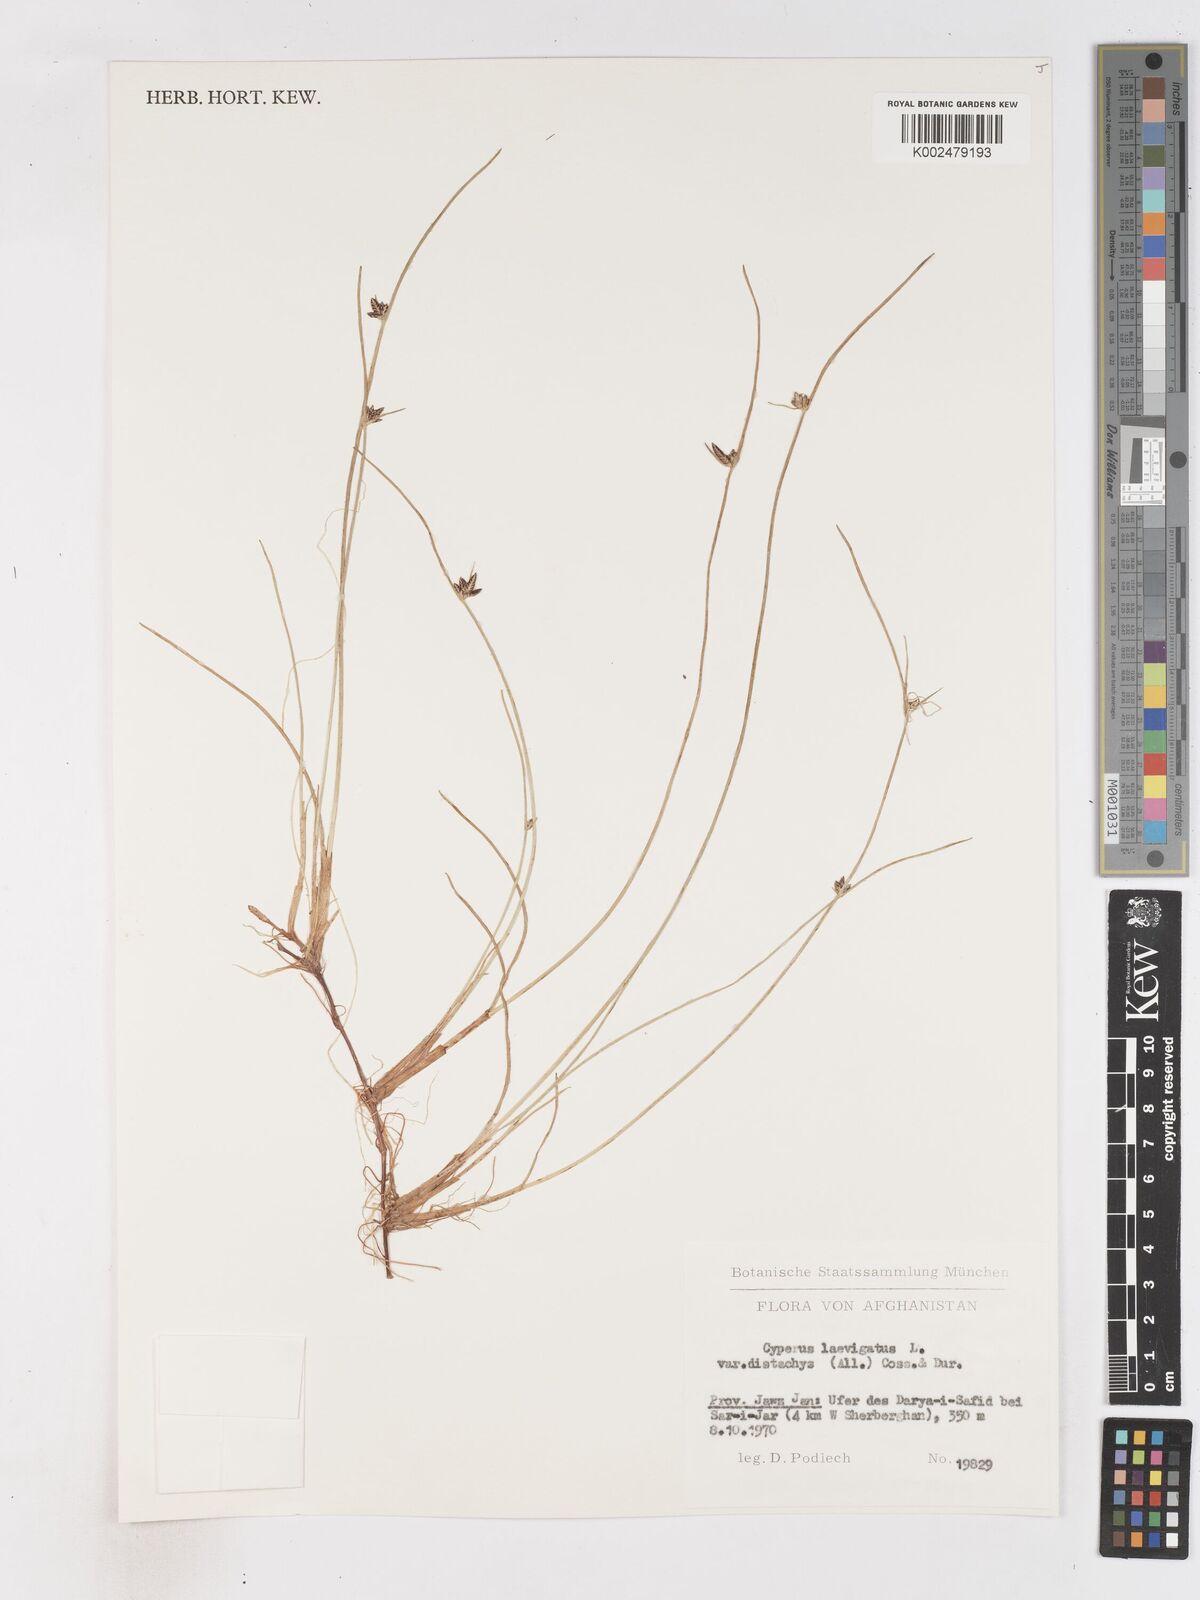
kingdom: Plantae
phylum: Tracheophyta
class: Liliopsida
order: Poales
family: Cyperaceae
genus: Cyperus
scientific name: Cyperus laevigatus
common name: Smooth flat sedge
